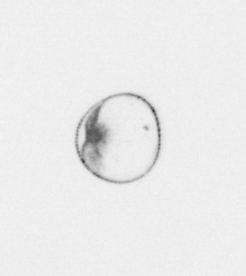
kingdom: Chromista
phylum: Myzozoa
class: Dinophyceae
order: Noctilucales
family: Noctilucaceae
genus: Noctiluca
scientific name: Noctiluca scintillans
